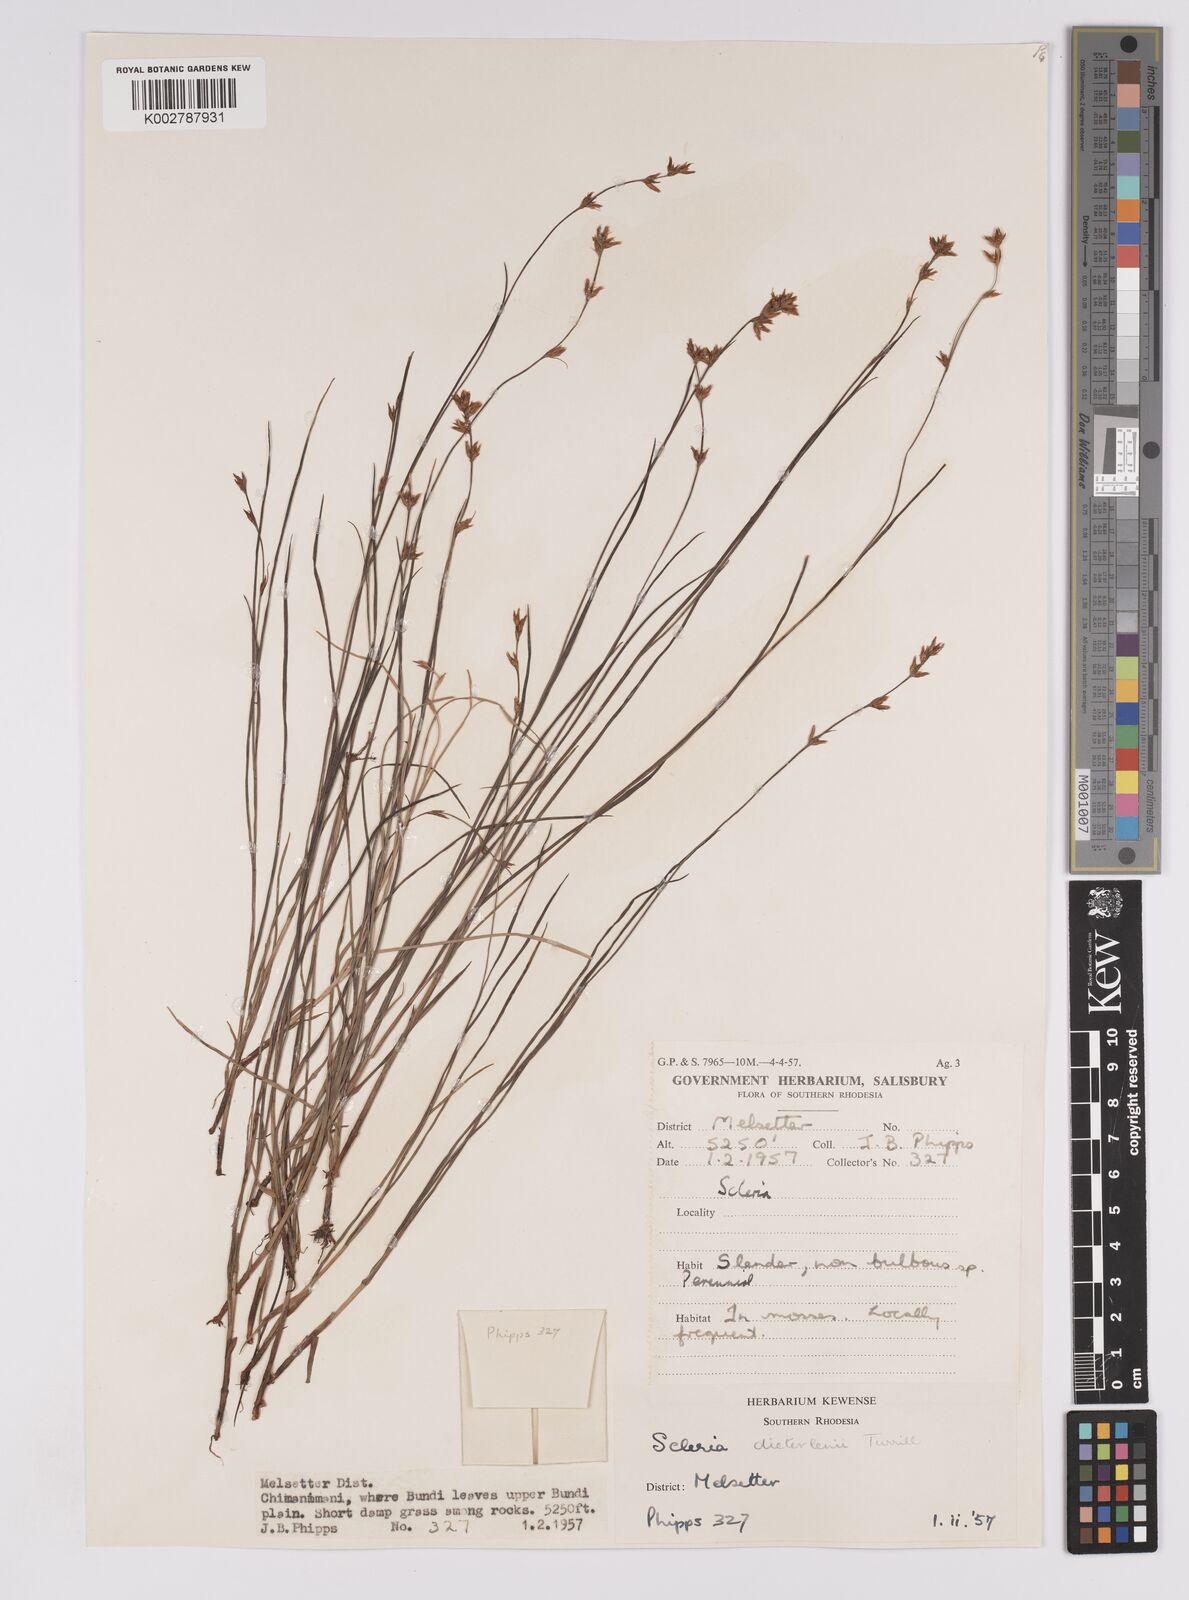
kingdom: Plantae
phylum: Tracheophyta
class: Liliopsida
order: Poales
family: Cyperaceae
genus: Scleria
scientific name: Scleria flexuosa
